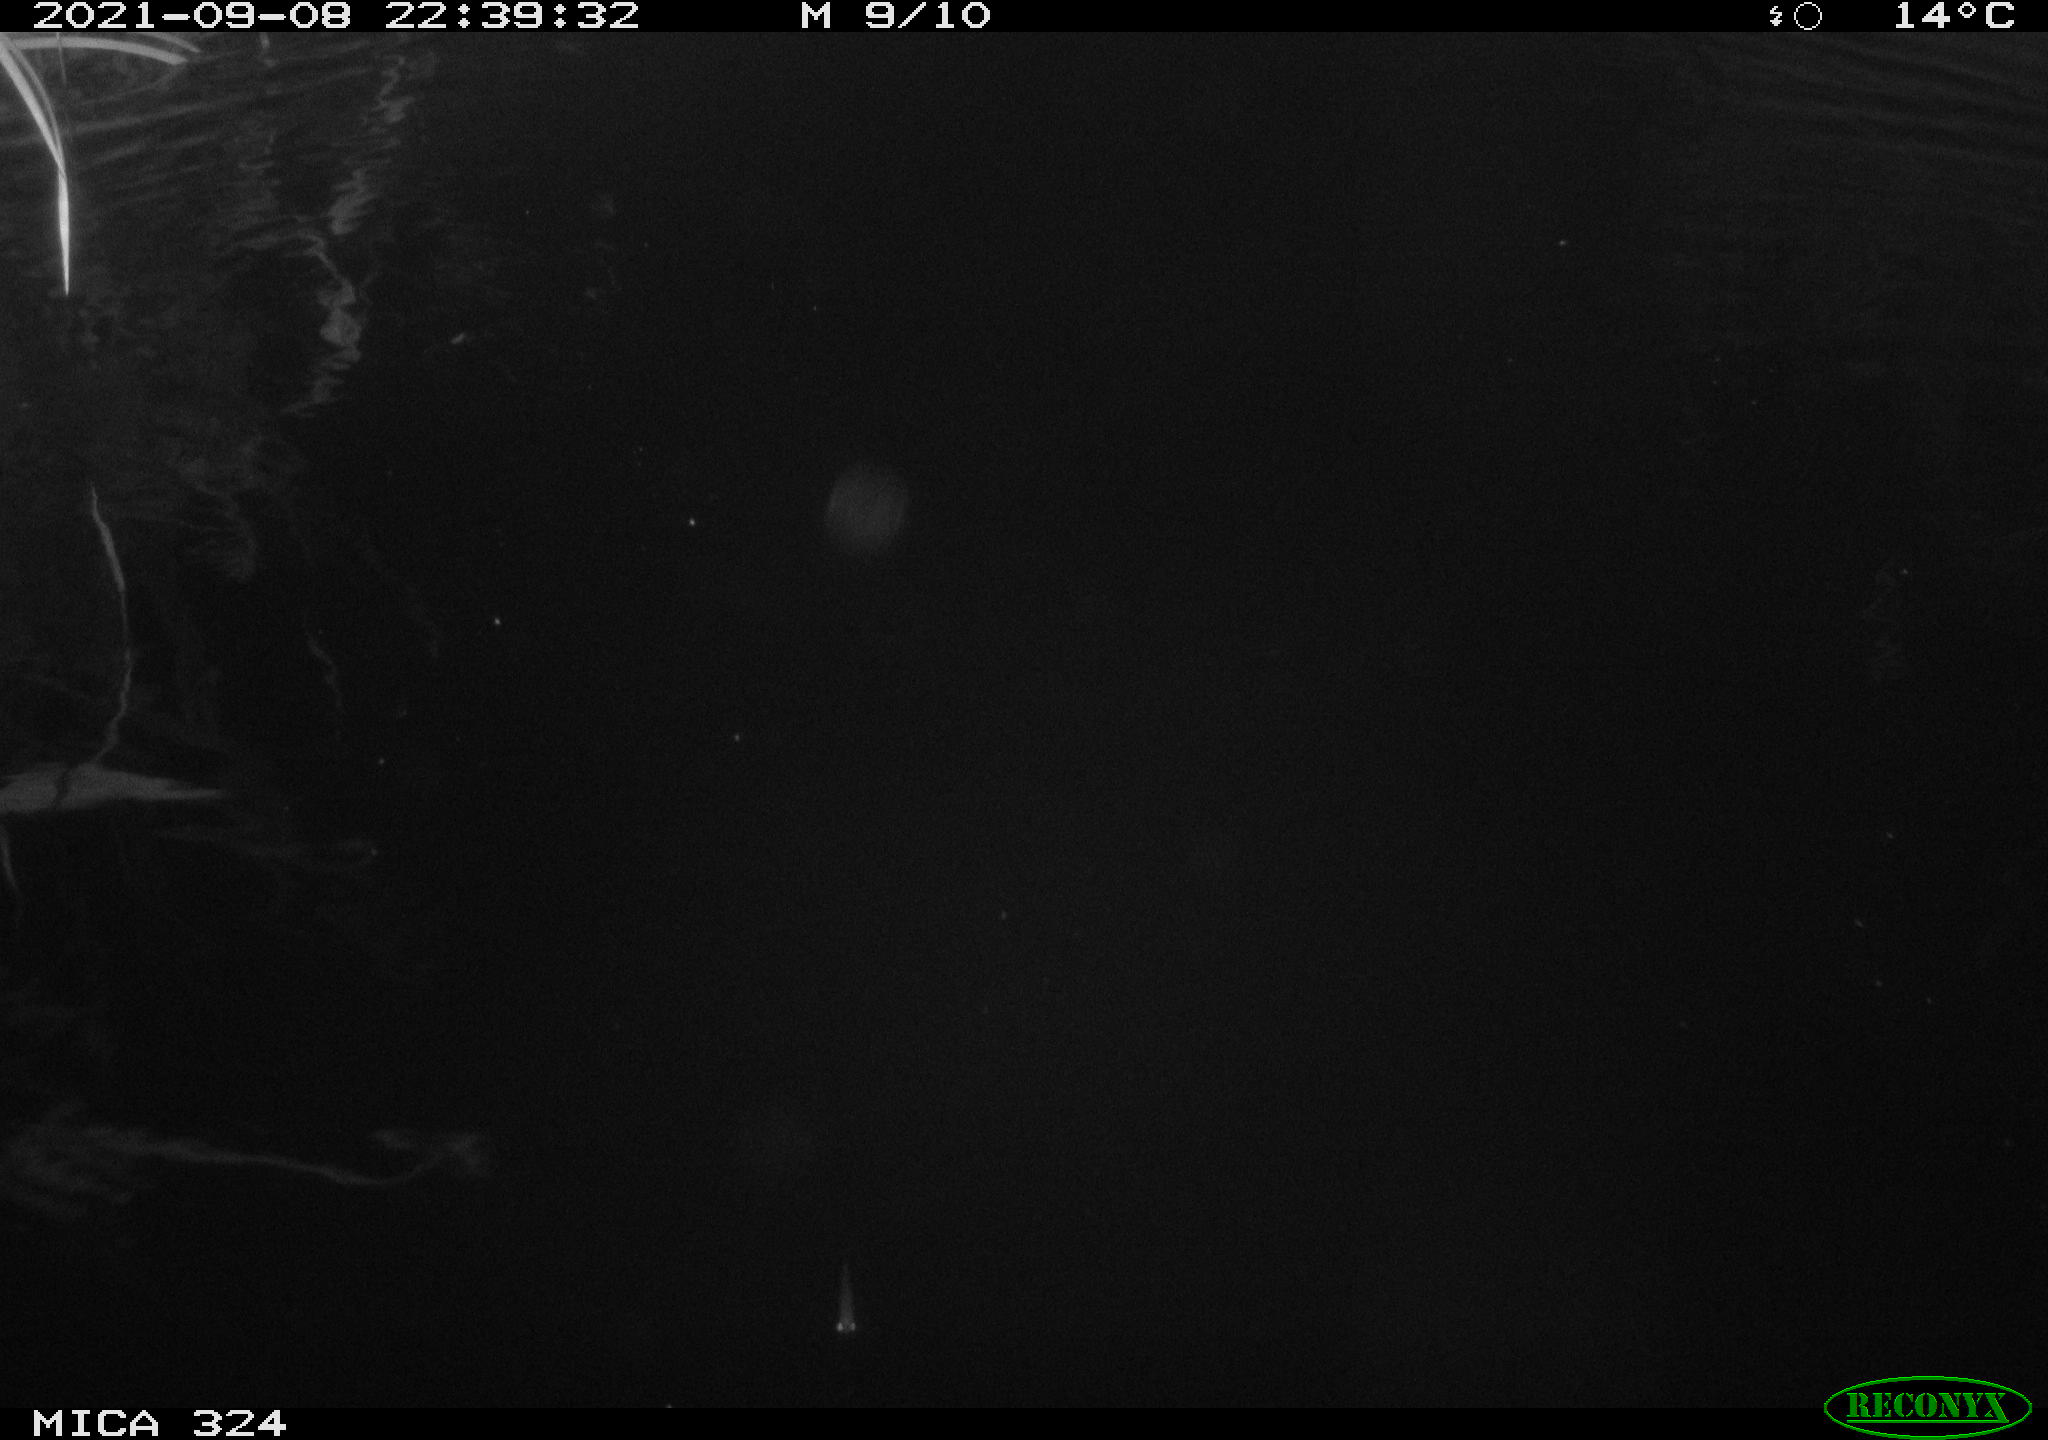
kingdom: Animalia
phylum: Chordata
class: Mammalia
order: Rodentia
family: Cricetidae
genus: Ondatra
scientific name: Ondatra zibethicus
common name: Muskrat
